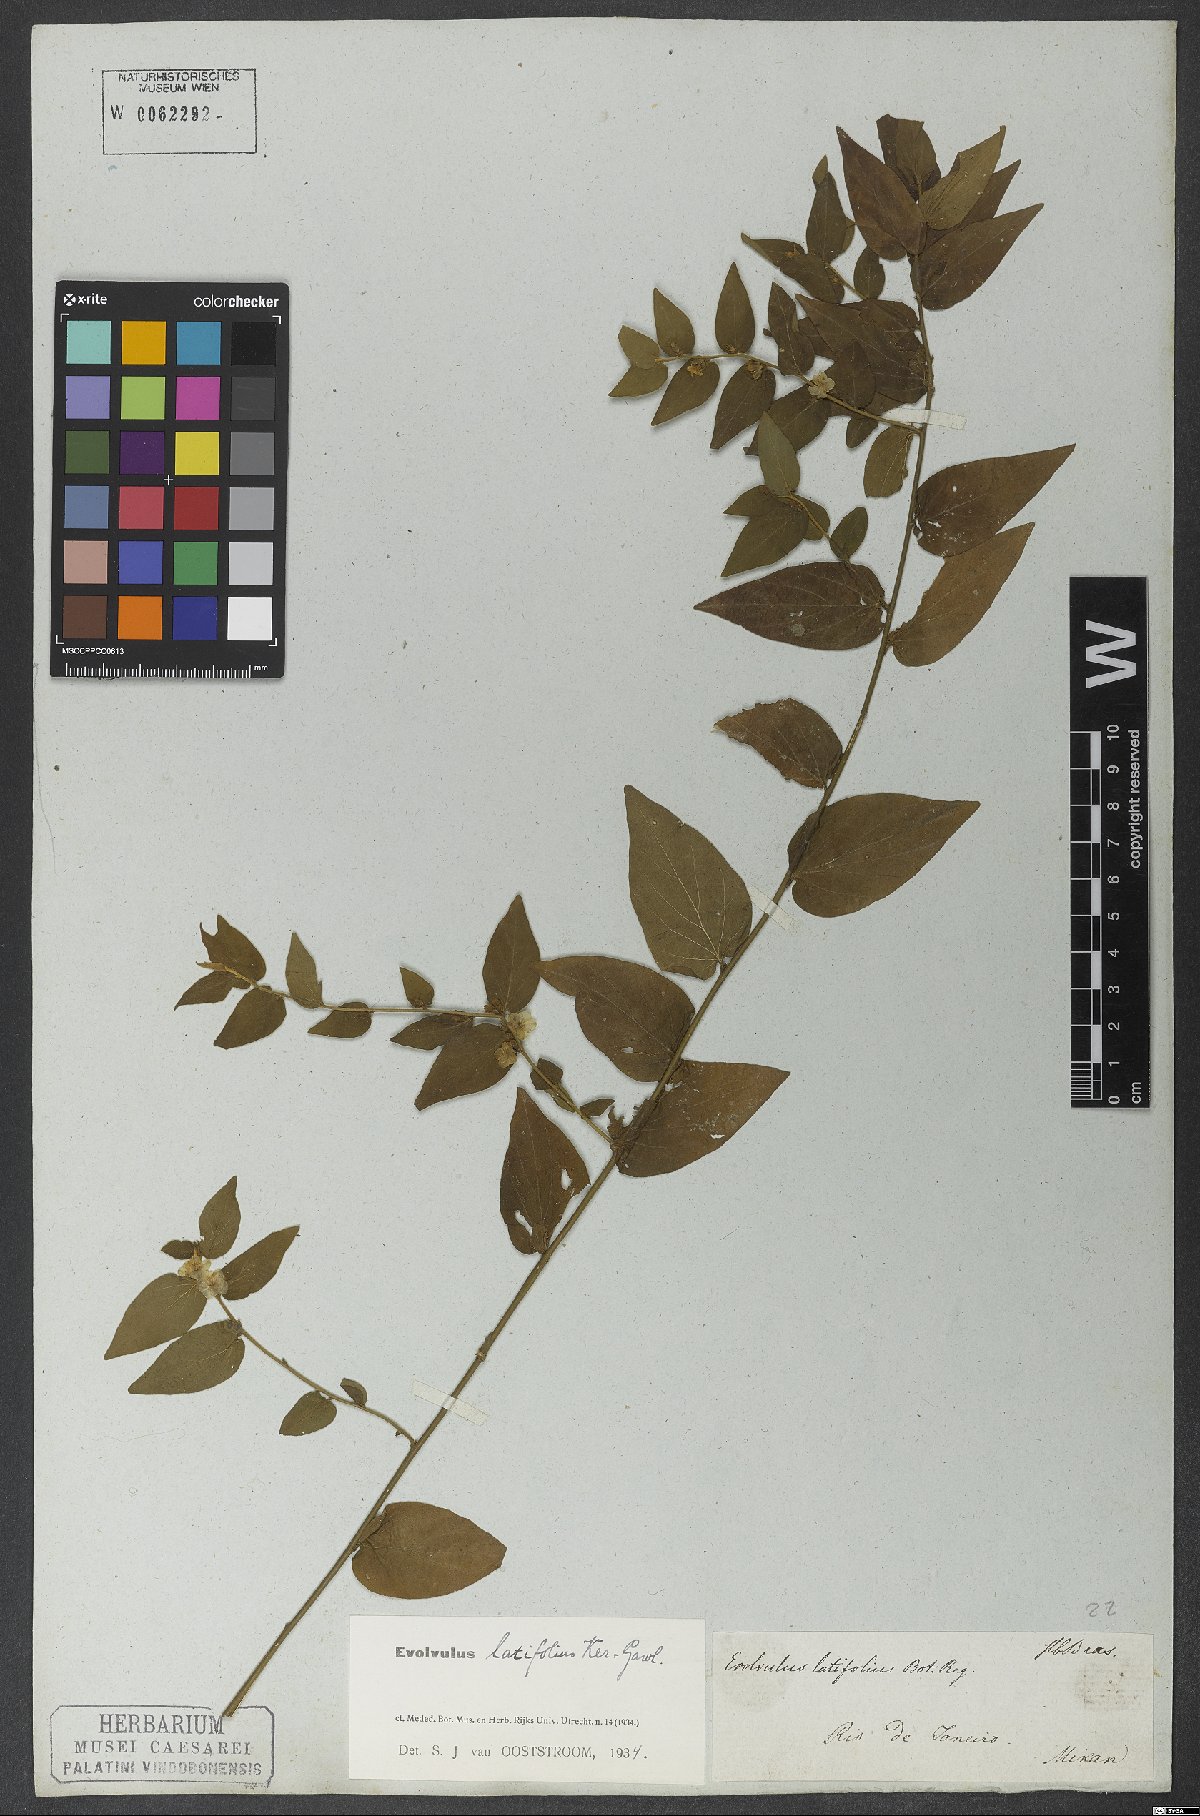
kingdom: Plantae
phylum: Tracheophyta
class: Magnoliopsida
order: Solanales
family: Convolvulaceae
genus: Evolvulus
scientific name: Evolvulus latifolius
